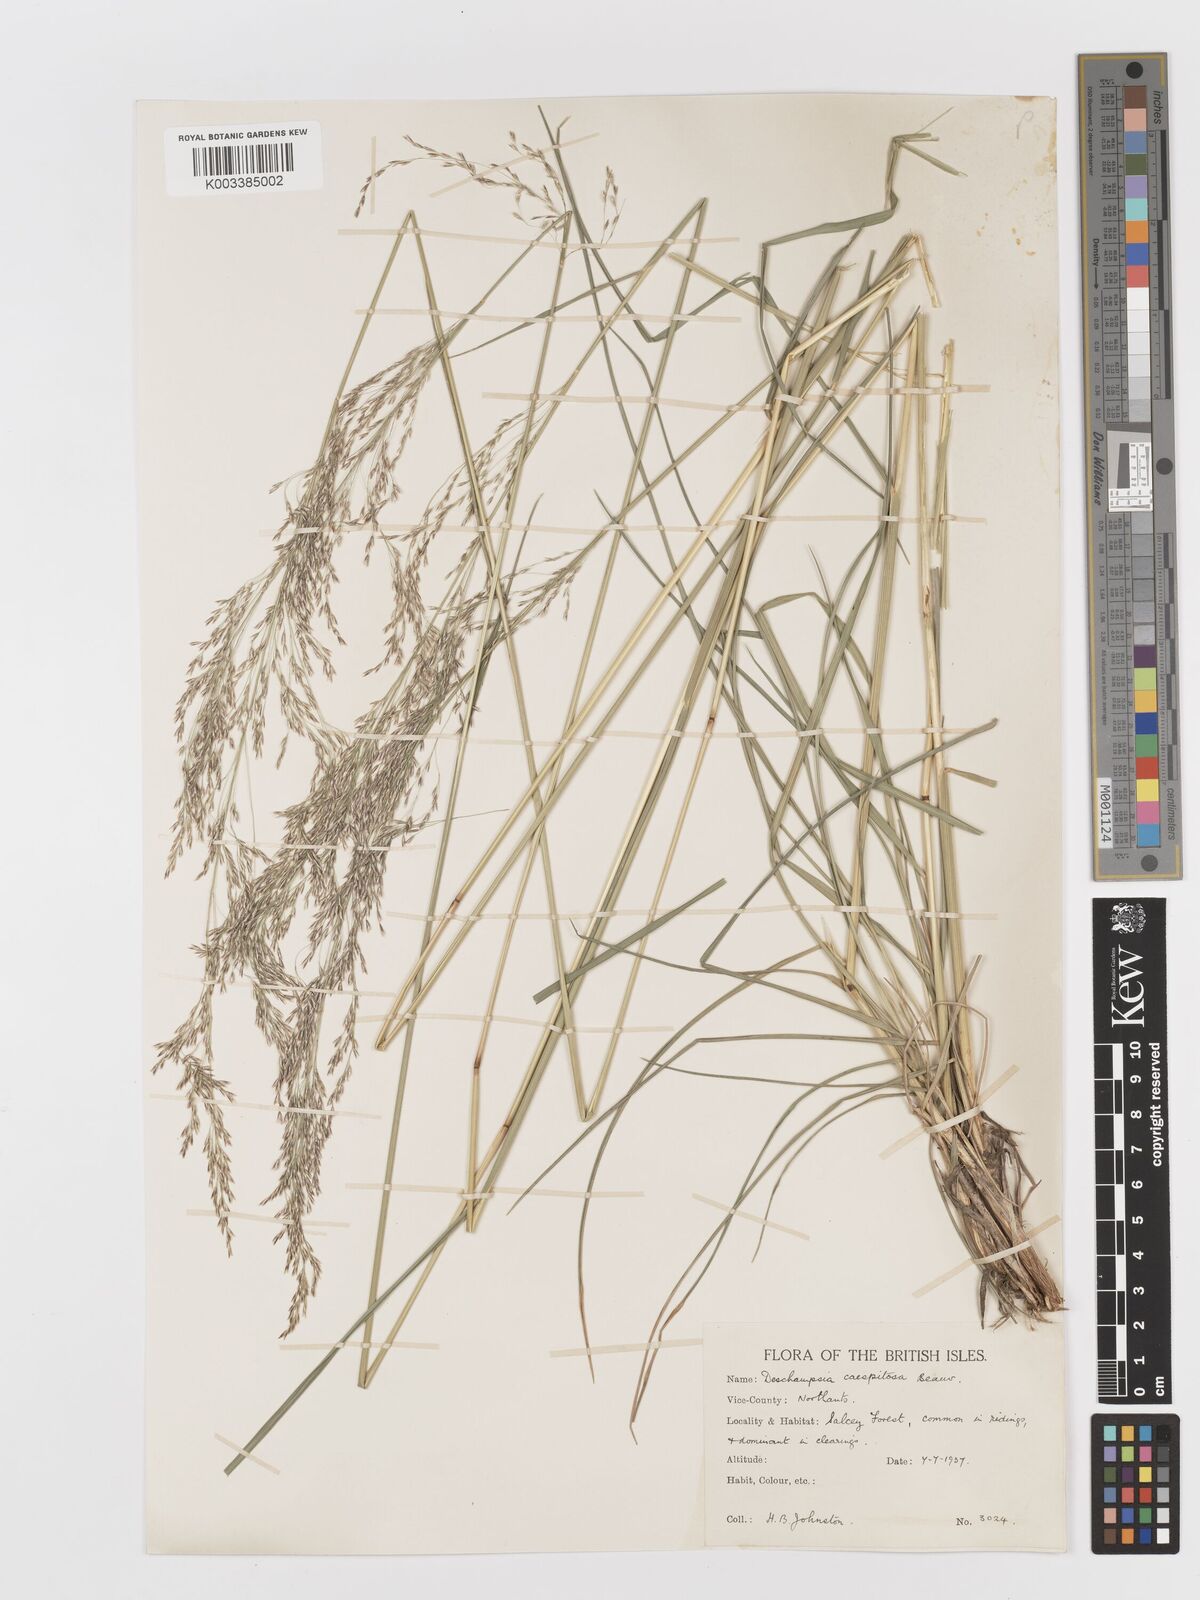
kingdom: Plantae
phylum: Tracheophyta
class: Liliopsida
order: Poales
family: Poaceae
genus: Deschampsia
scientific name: Deschampsia cespitosa
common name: Tufted hair-grass
